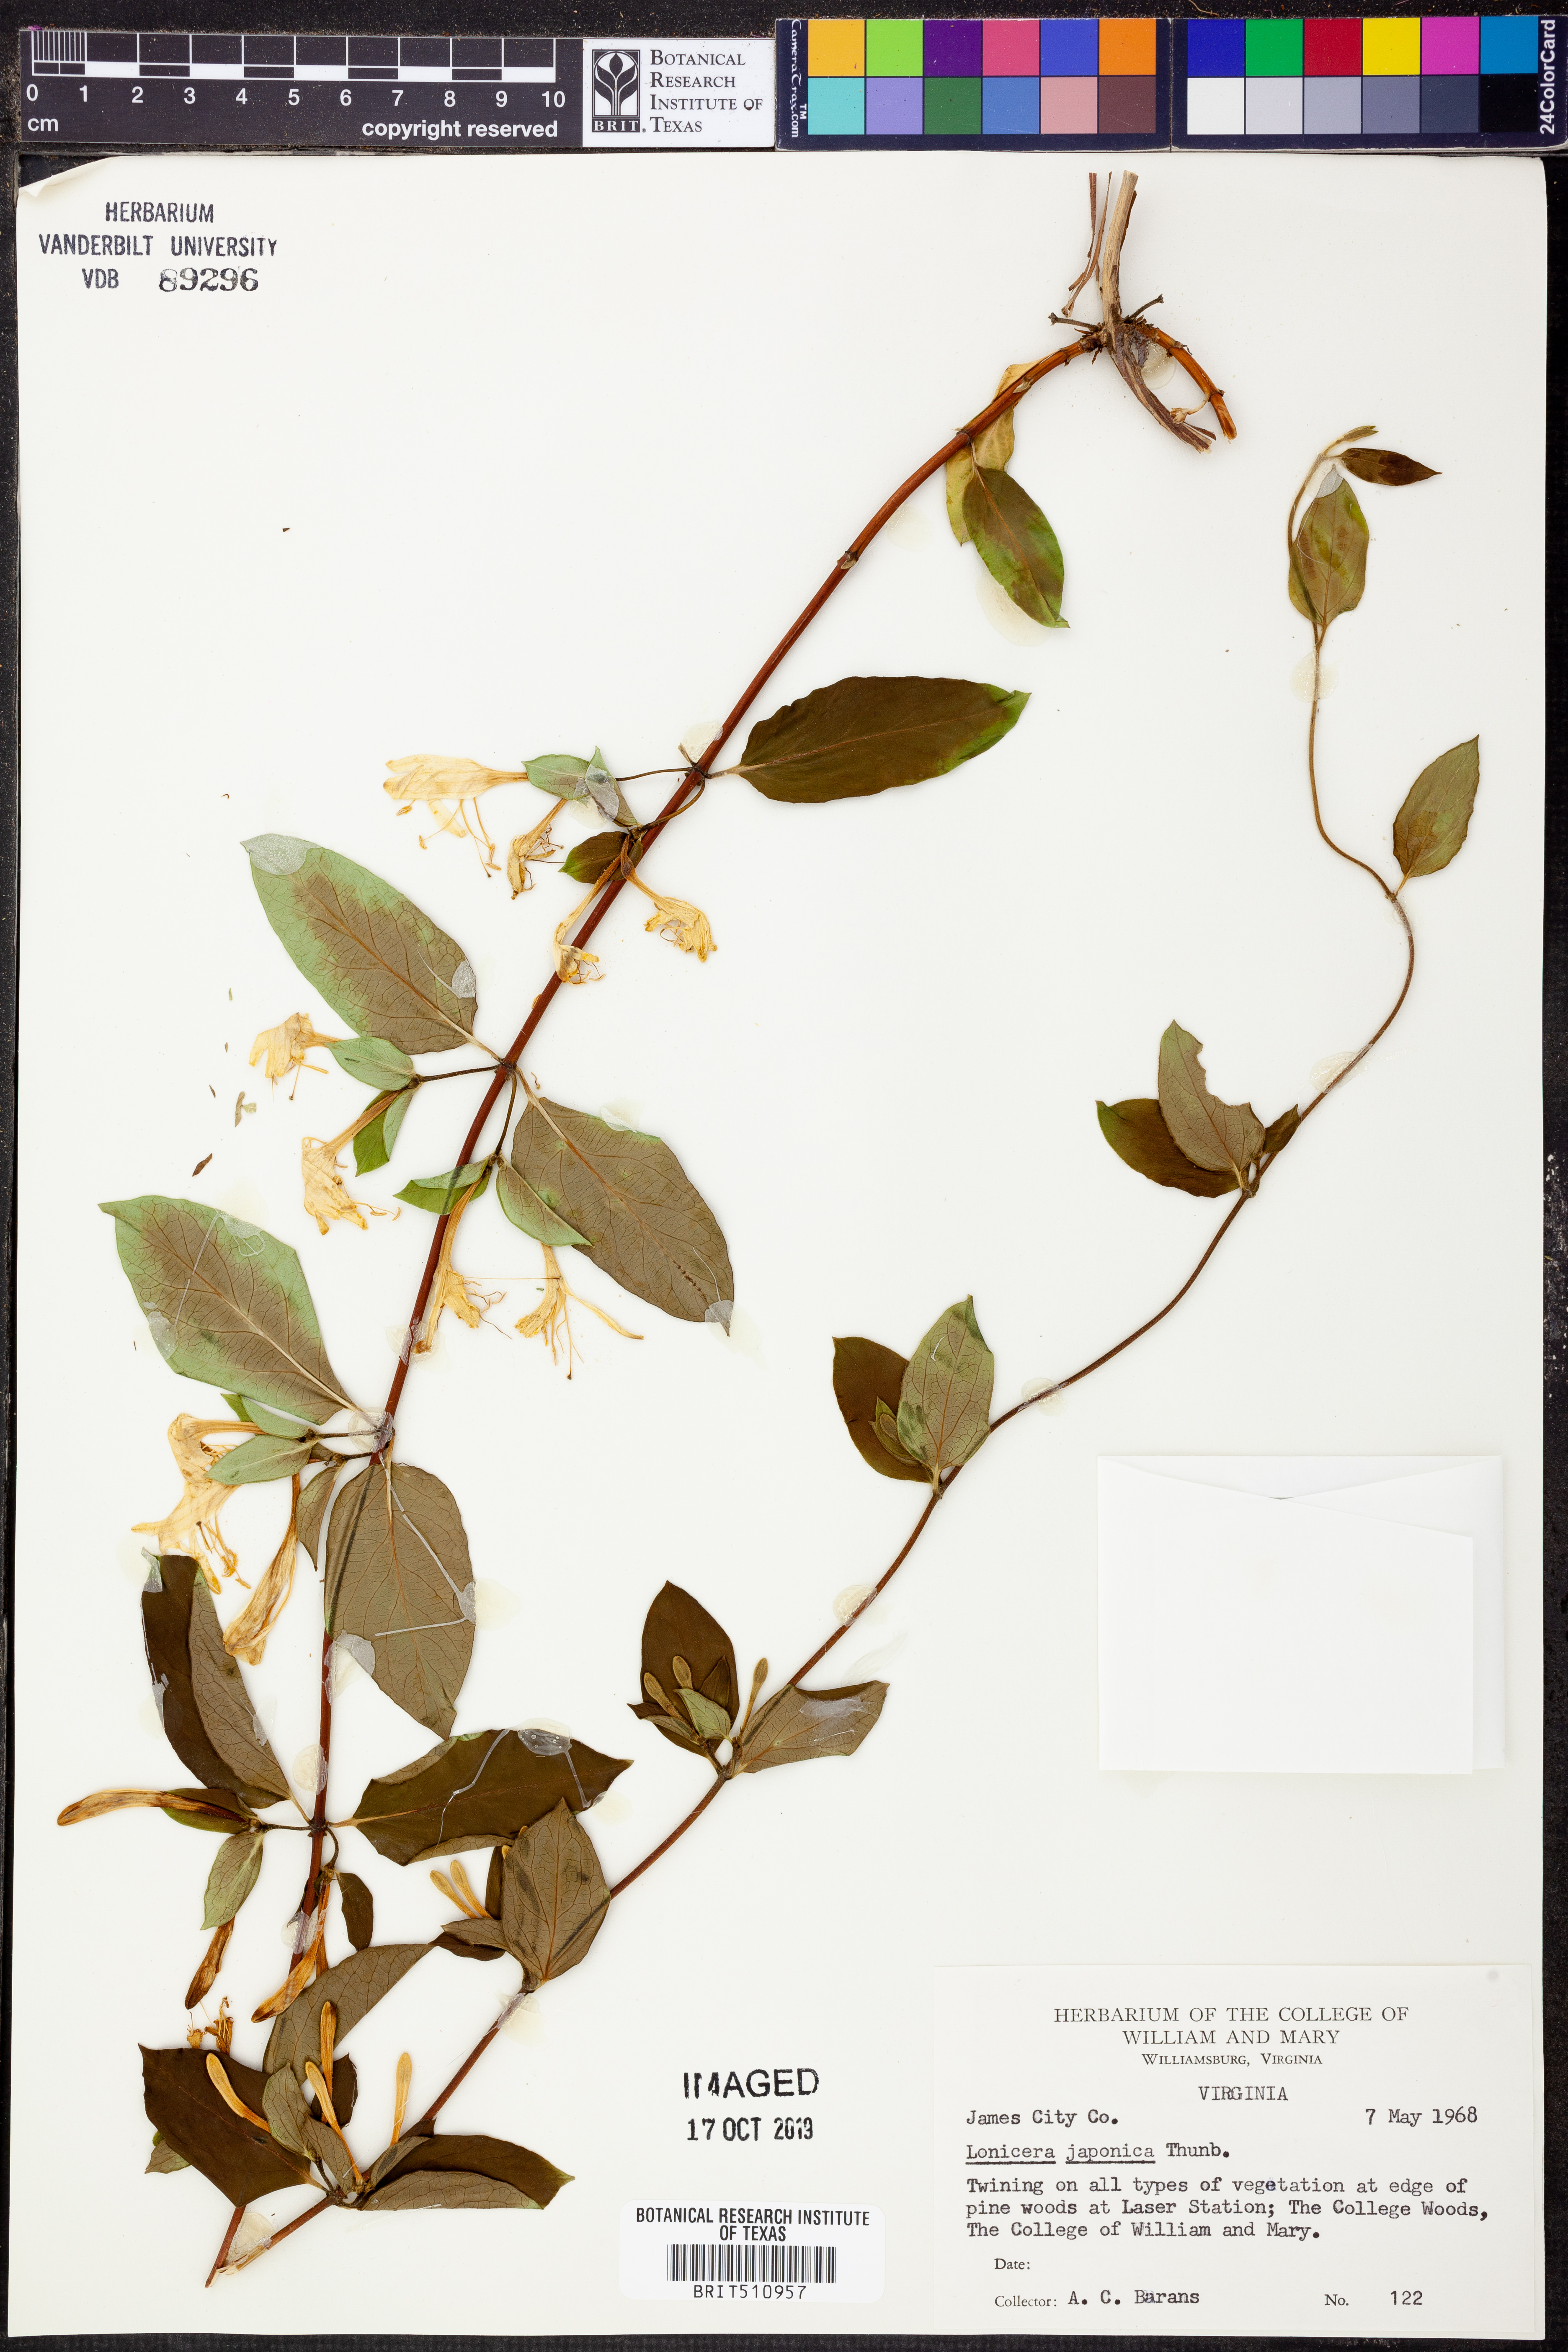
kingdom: Plantae
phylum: Tracheophyta
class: Magnoliopsida
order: Dipsacales
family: Caprifoliaceae
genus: Lonicera
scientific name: Lonicera japonica
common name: Japanese honeysuckle
